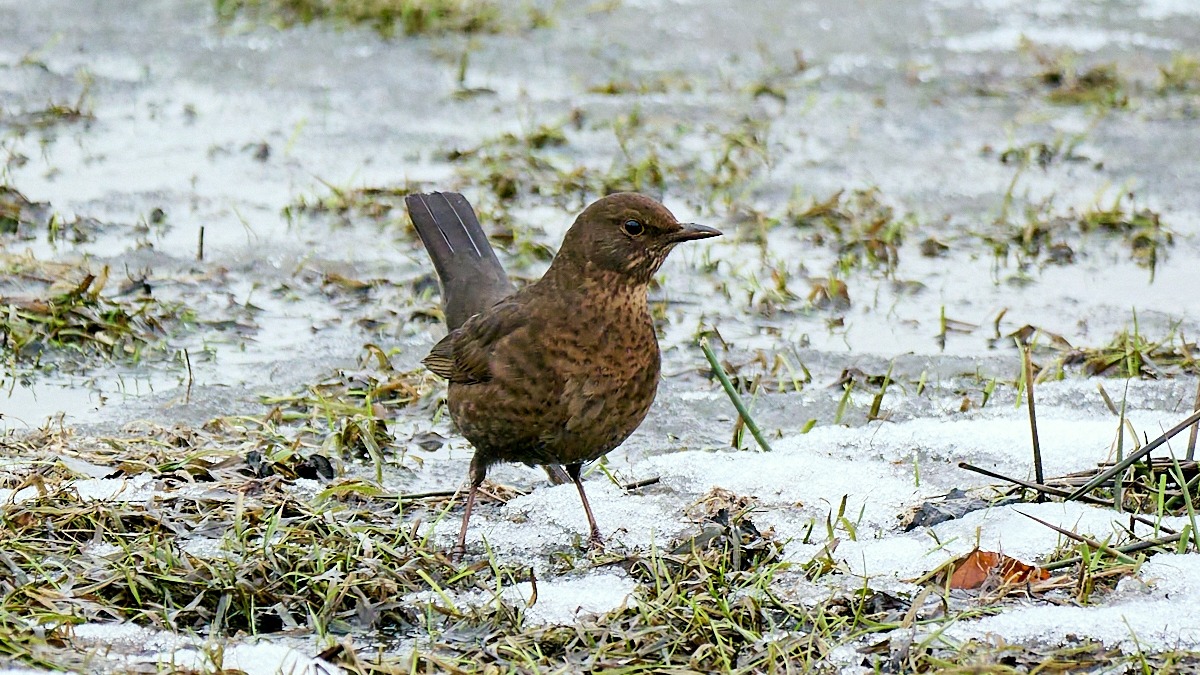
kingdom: Animalia
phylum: Chordata
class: Aves
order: Passeriformes
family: Turdidae
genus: Turdus
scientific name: Turdus merula
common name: Solsort
